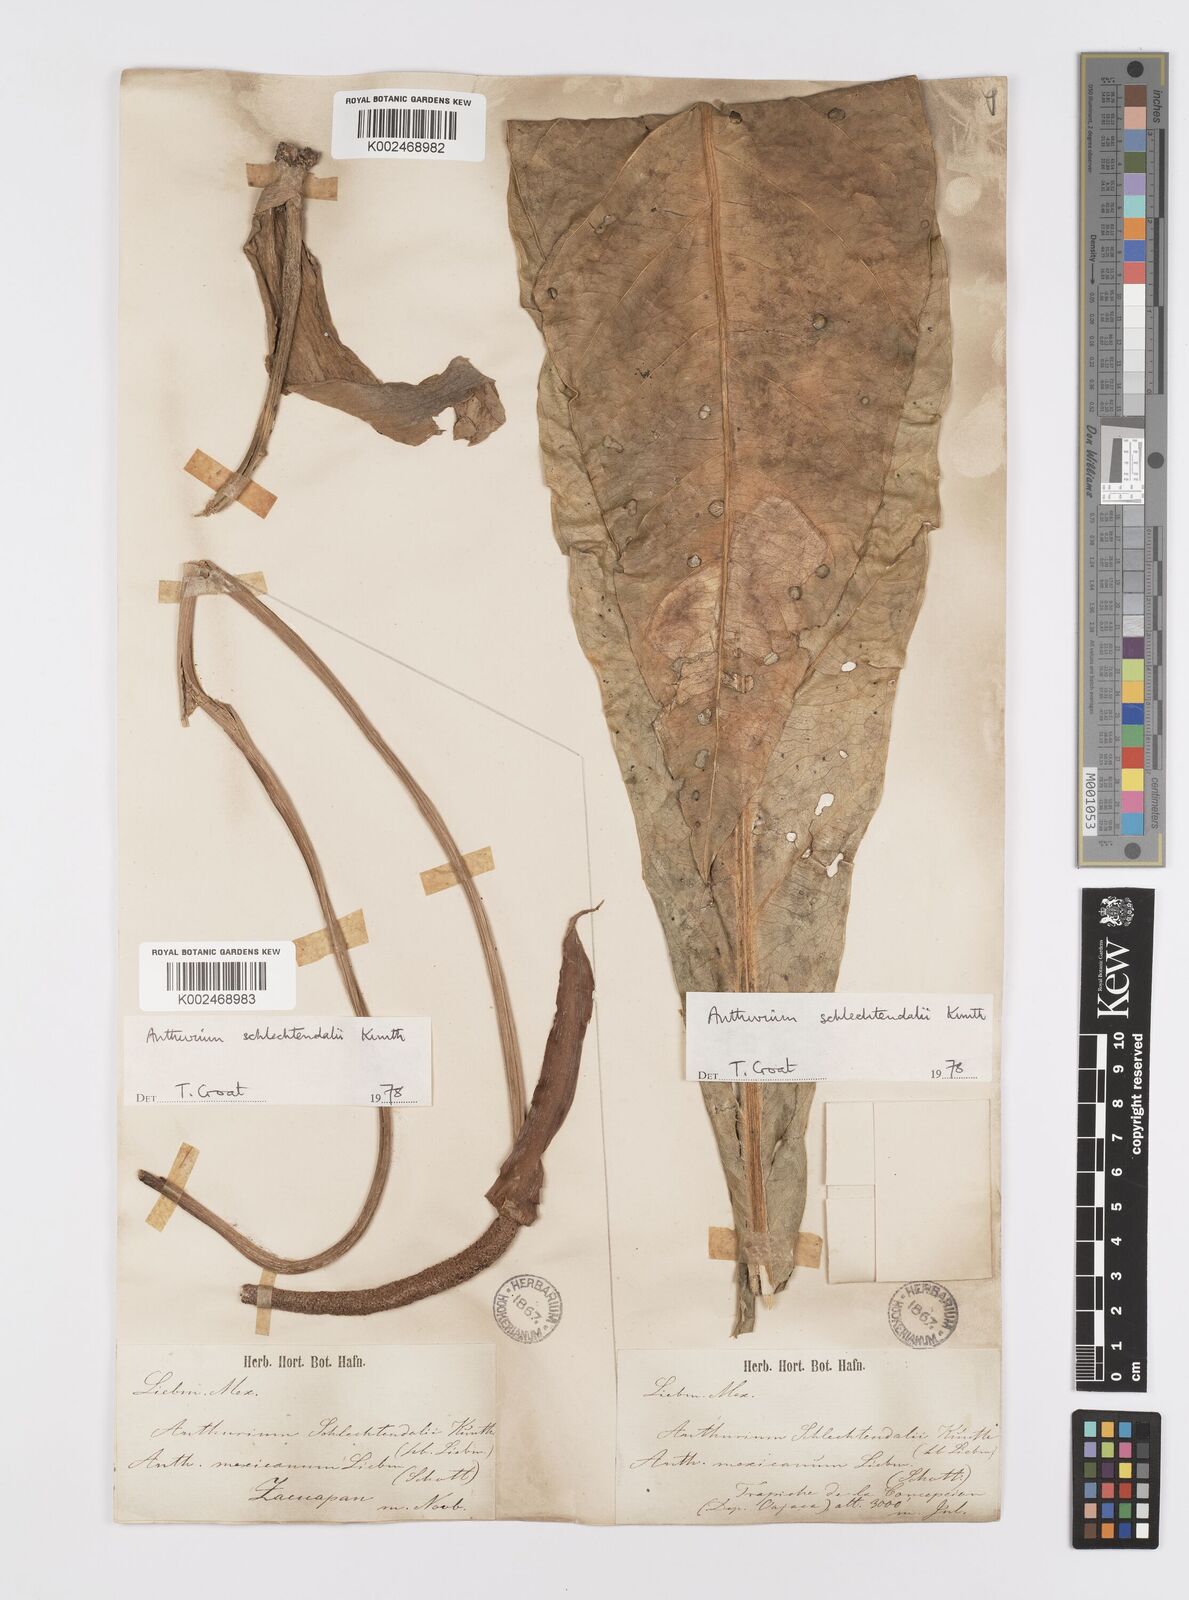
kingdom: Plantae
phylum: Tracheophyta
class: Liliopsida
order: Alismatales
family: Araceae
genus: Anthurium
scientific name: Anthurium schlechtendalii
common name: Laceleaf
